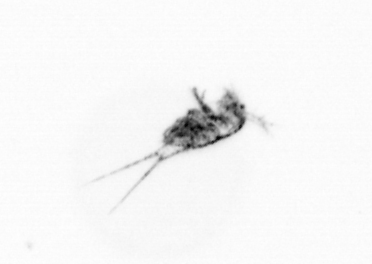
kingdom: Animalia
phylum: Arthropoda
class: Copepoda
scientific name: Copepoda
